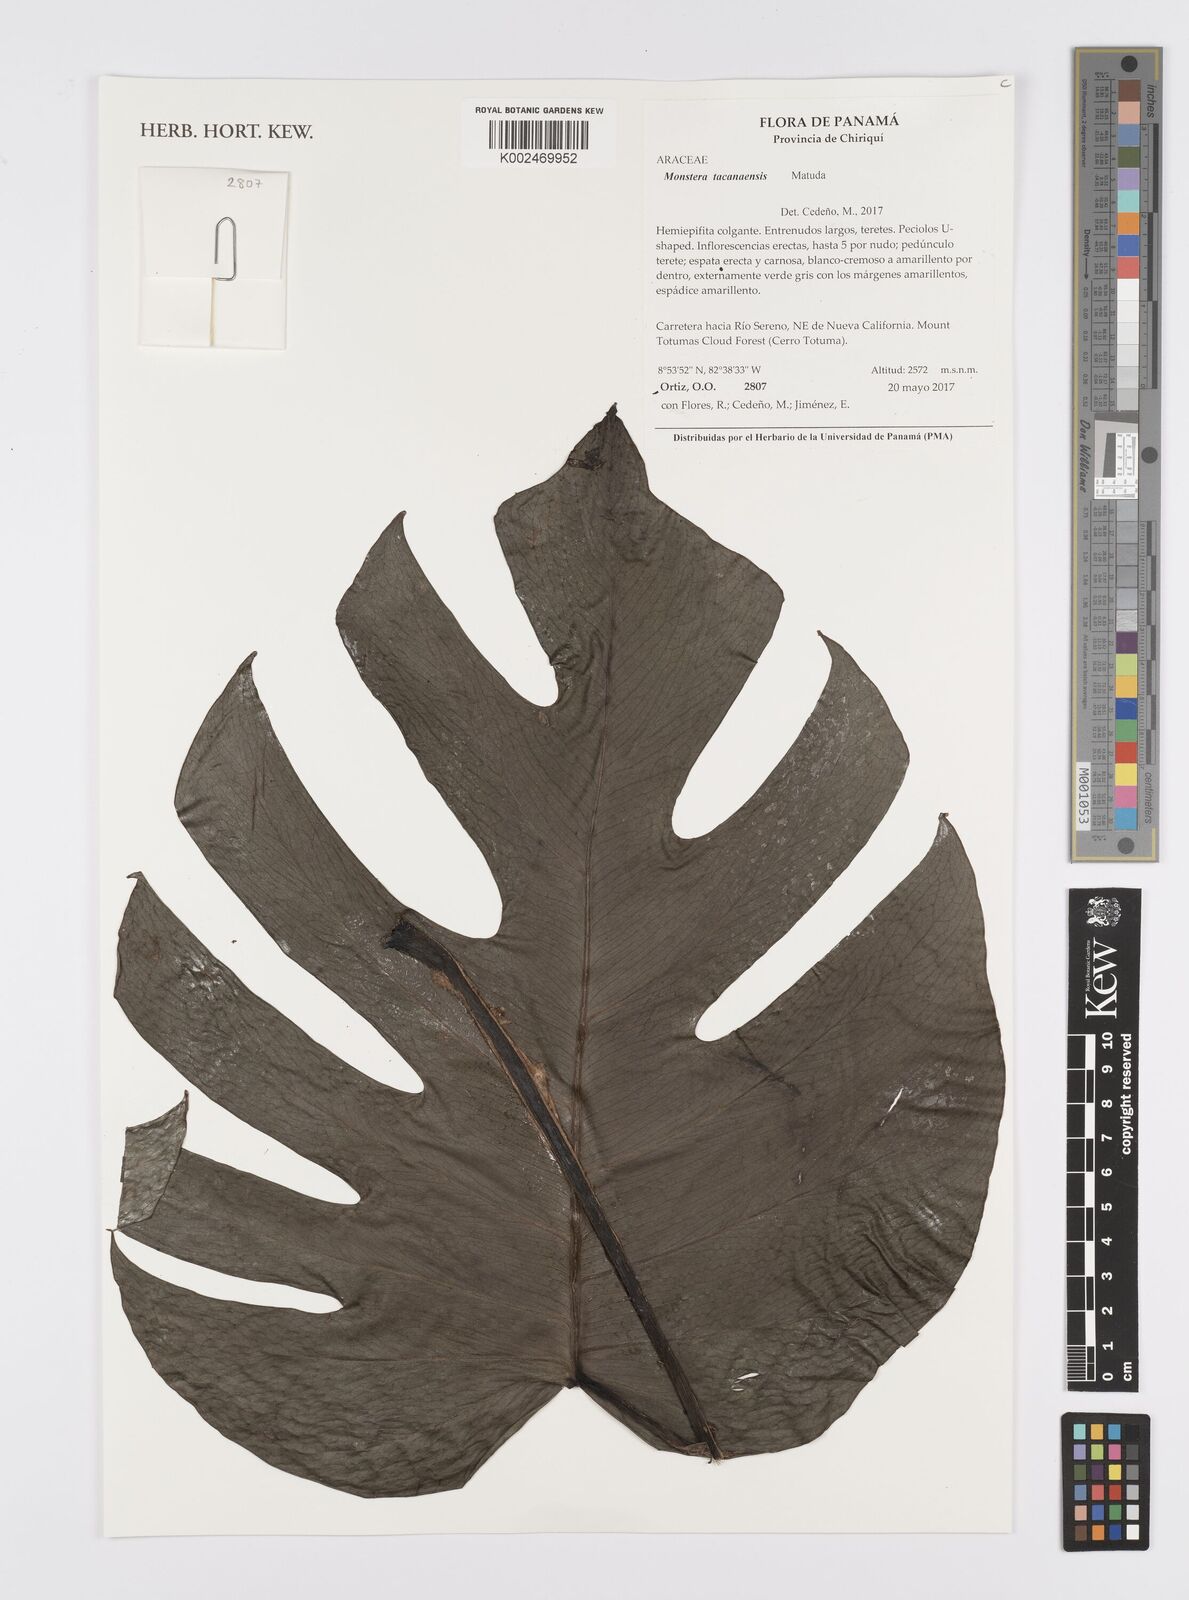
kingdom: Plantae
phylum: Tracheophyta
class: Liliopsida
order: Alismatales
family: Araceae
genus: Monstera
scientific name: Monstera tacanaensis
